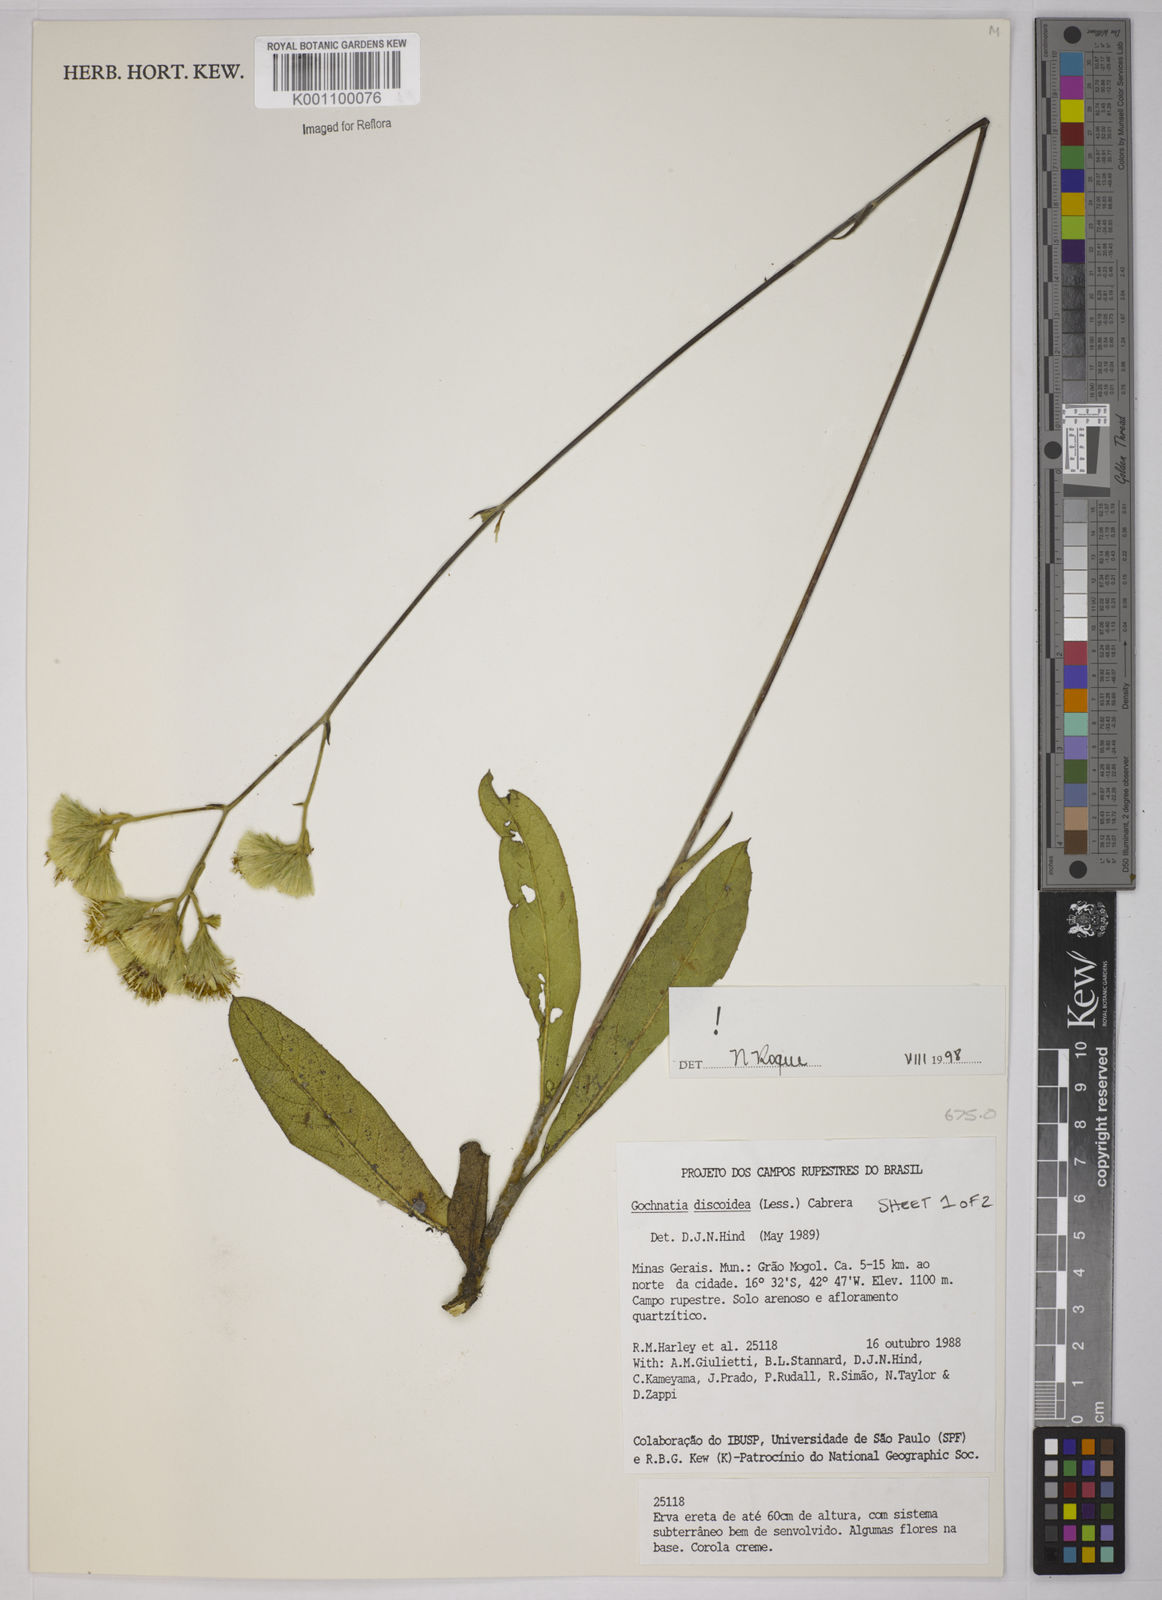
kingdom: Plantae
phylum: Tracheophyta
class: Magnoliopsida
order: Asterales
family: Asteraceae
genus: Richterago
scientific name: Richterago discoidea
